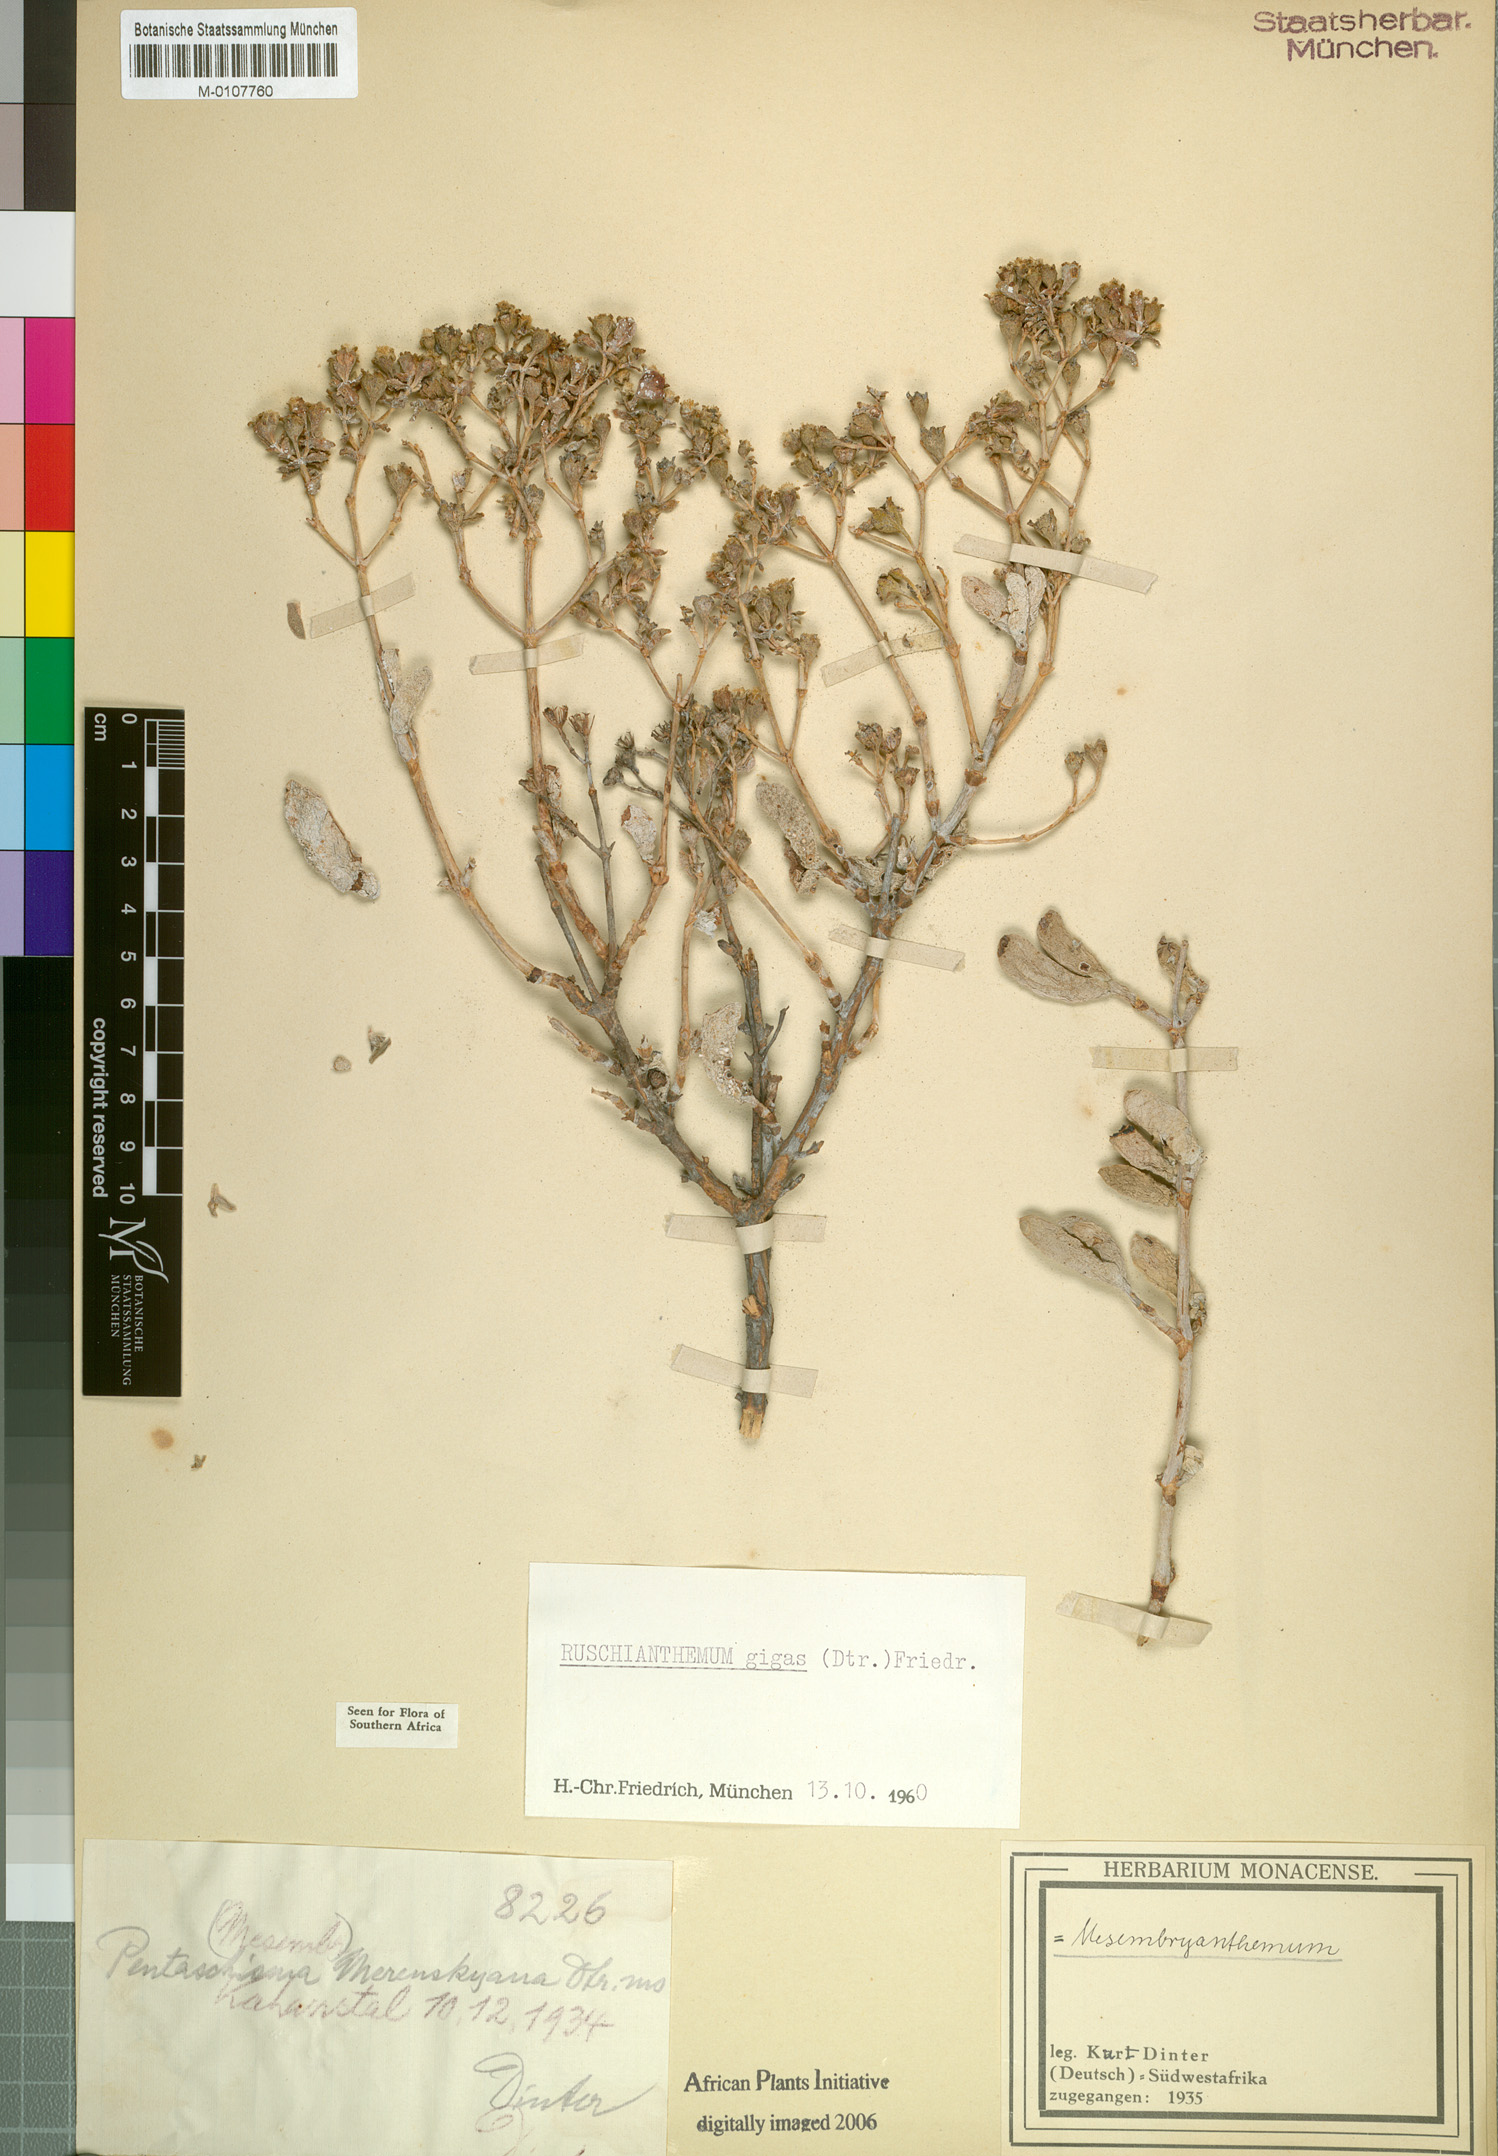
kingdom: Plantae
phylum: Tracheophyta
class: Magnoliopsida
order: Caryophyllales
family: Aizoaceae
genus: Ruschianthemum
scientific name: Ruschianthemum gigas
